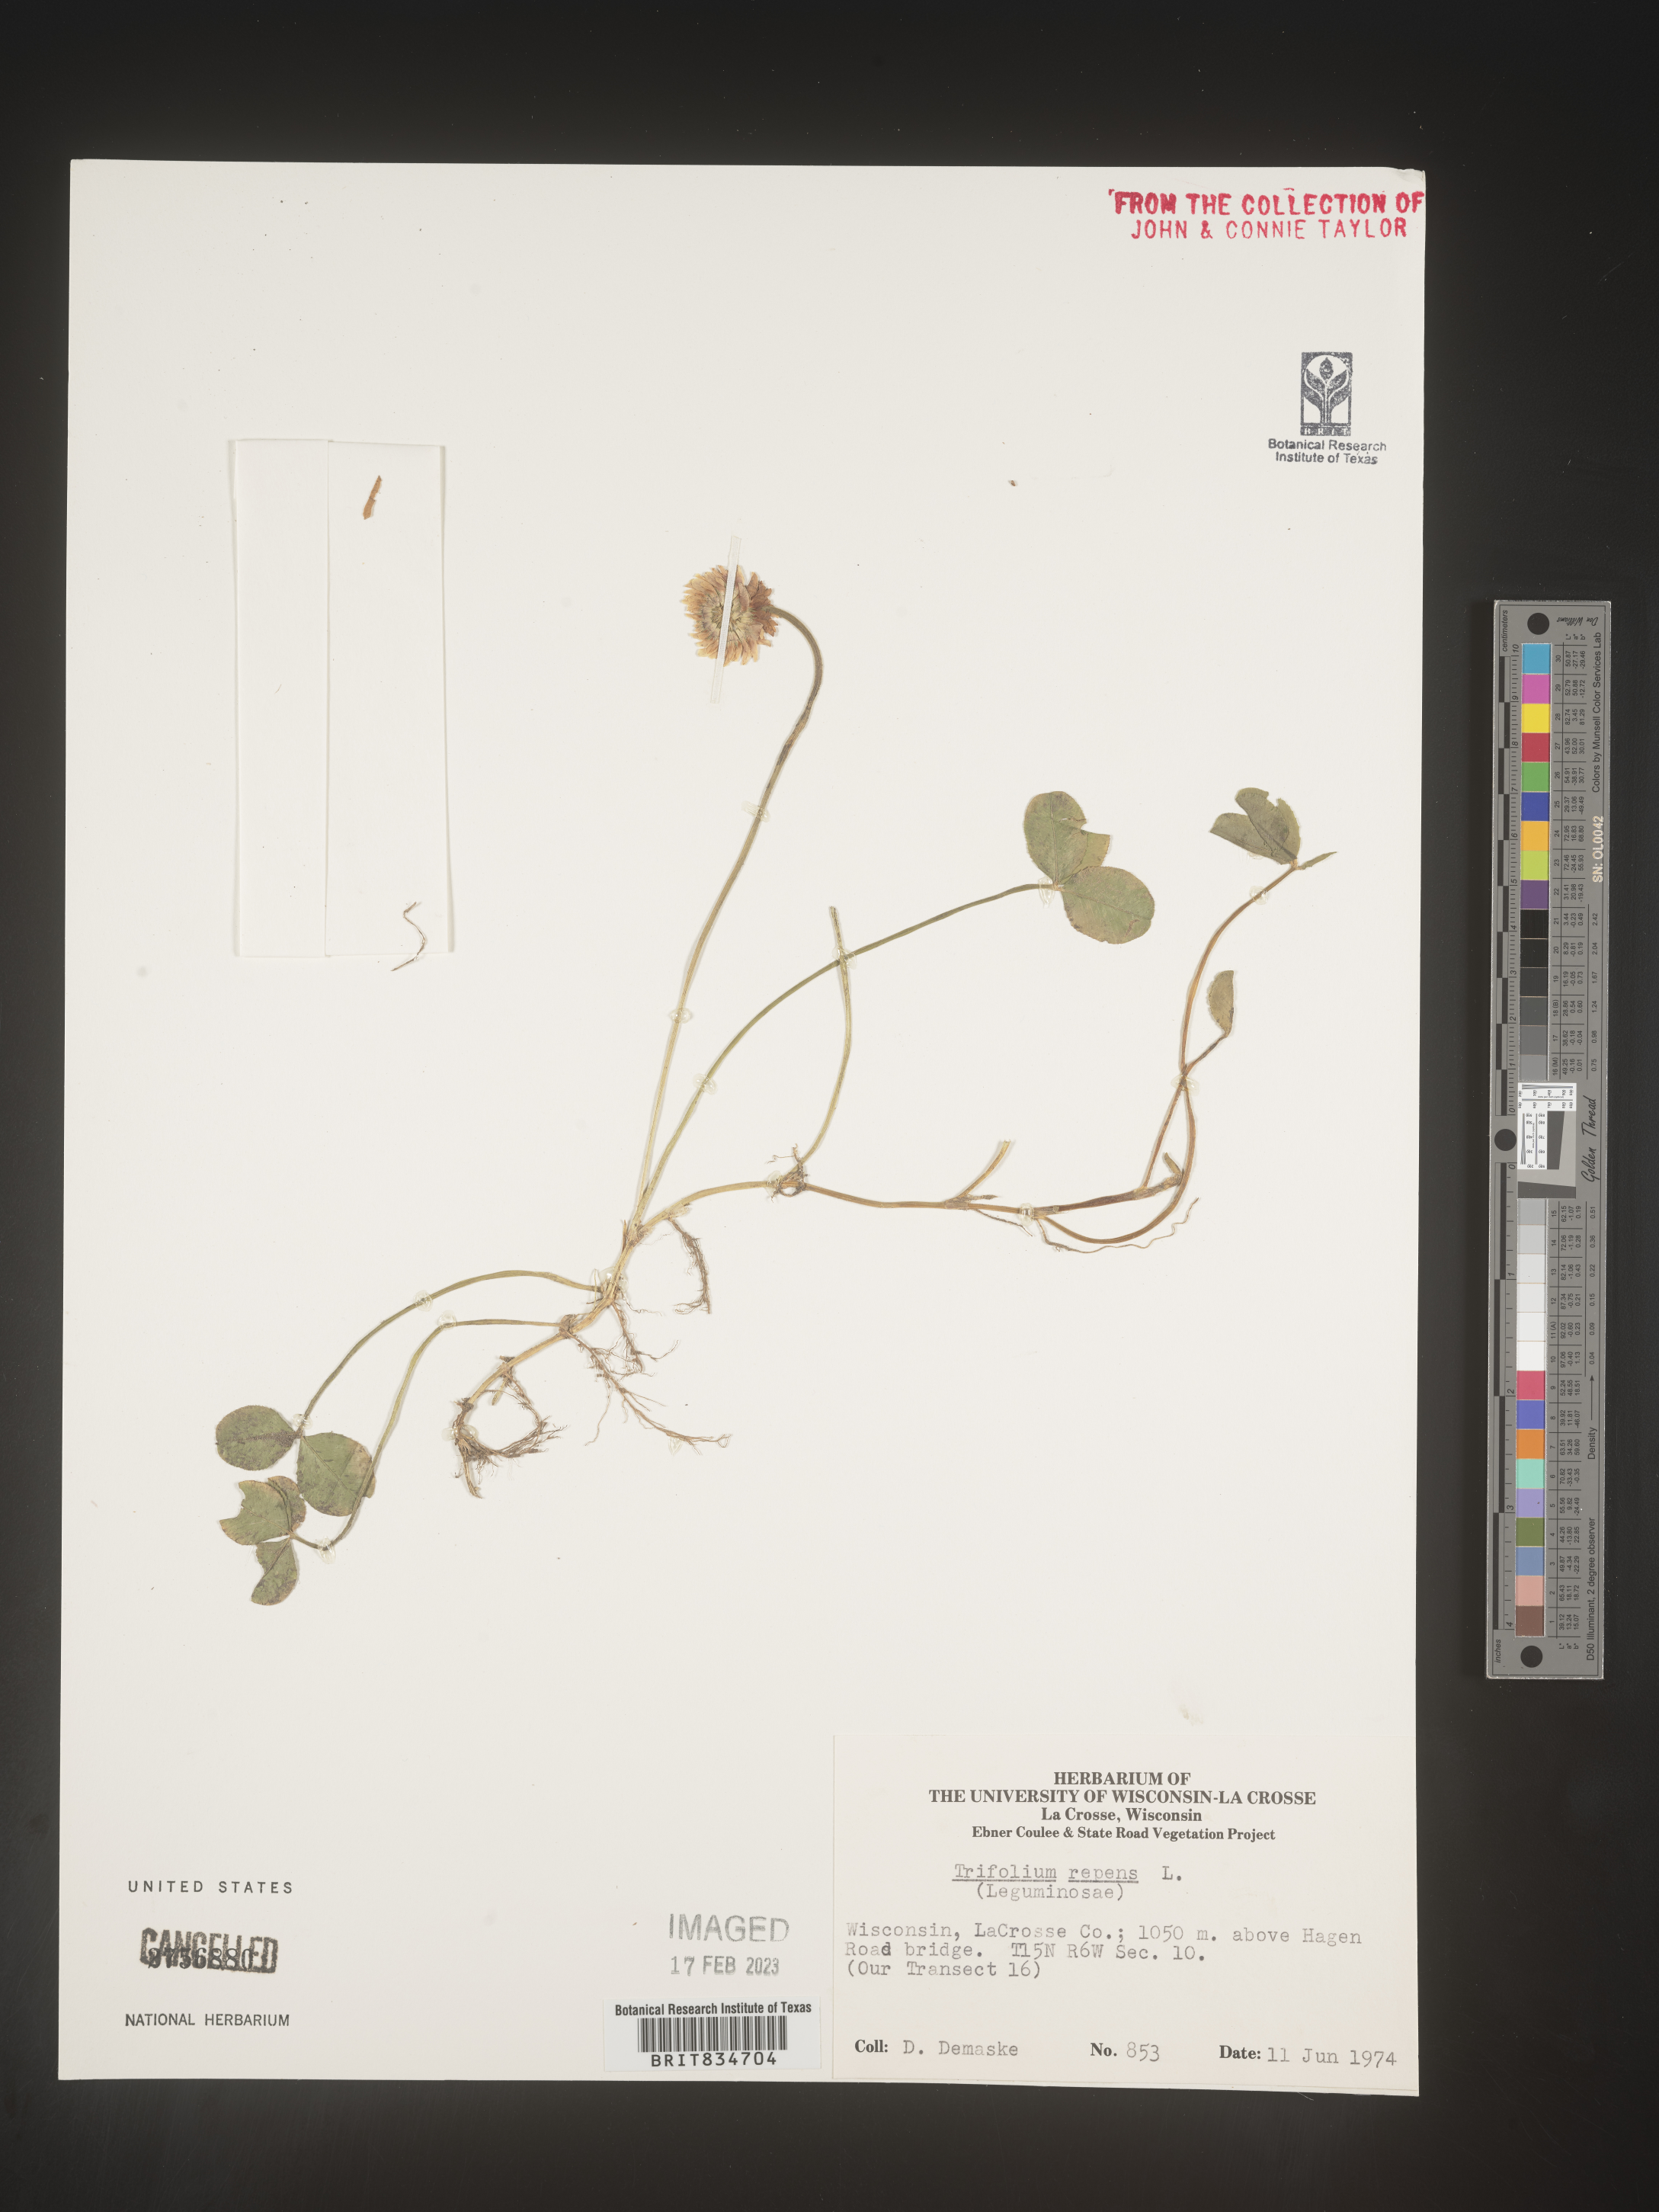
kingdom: Plantae
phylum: Tracheophyta
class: Magnoliopsida
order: Fabales
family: Fabaceae
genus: Trifolium
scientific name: Trifolium repens
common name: White clover
